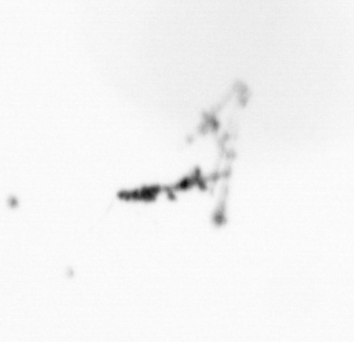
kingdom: Chromista
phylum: Ochrophyta
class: Bacillariophyceae
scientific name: Bacillariophyceae
